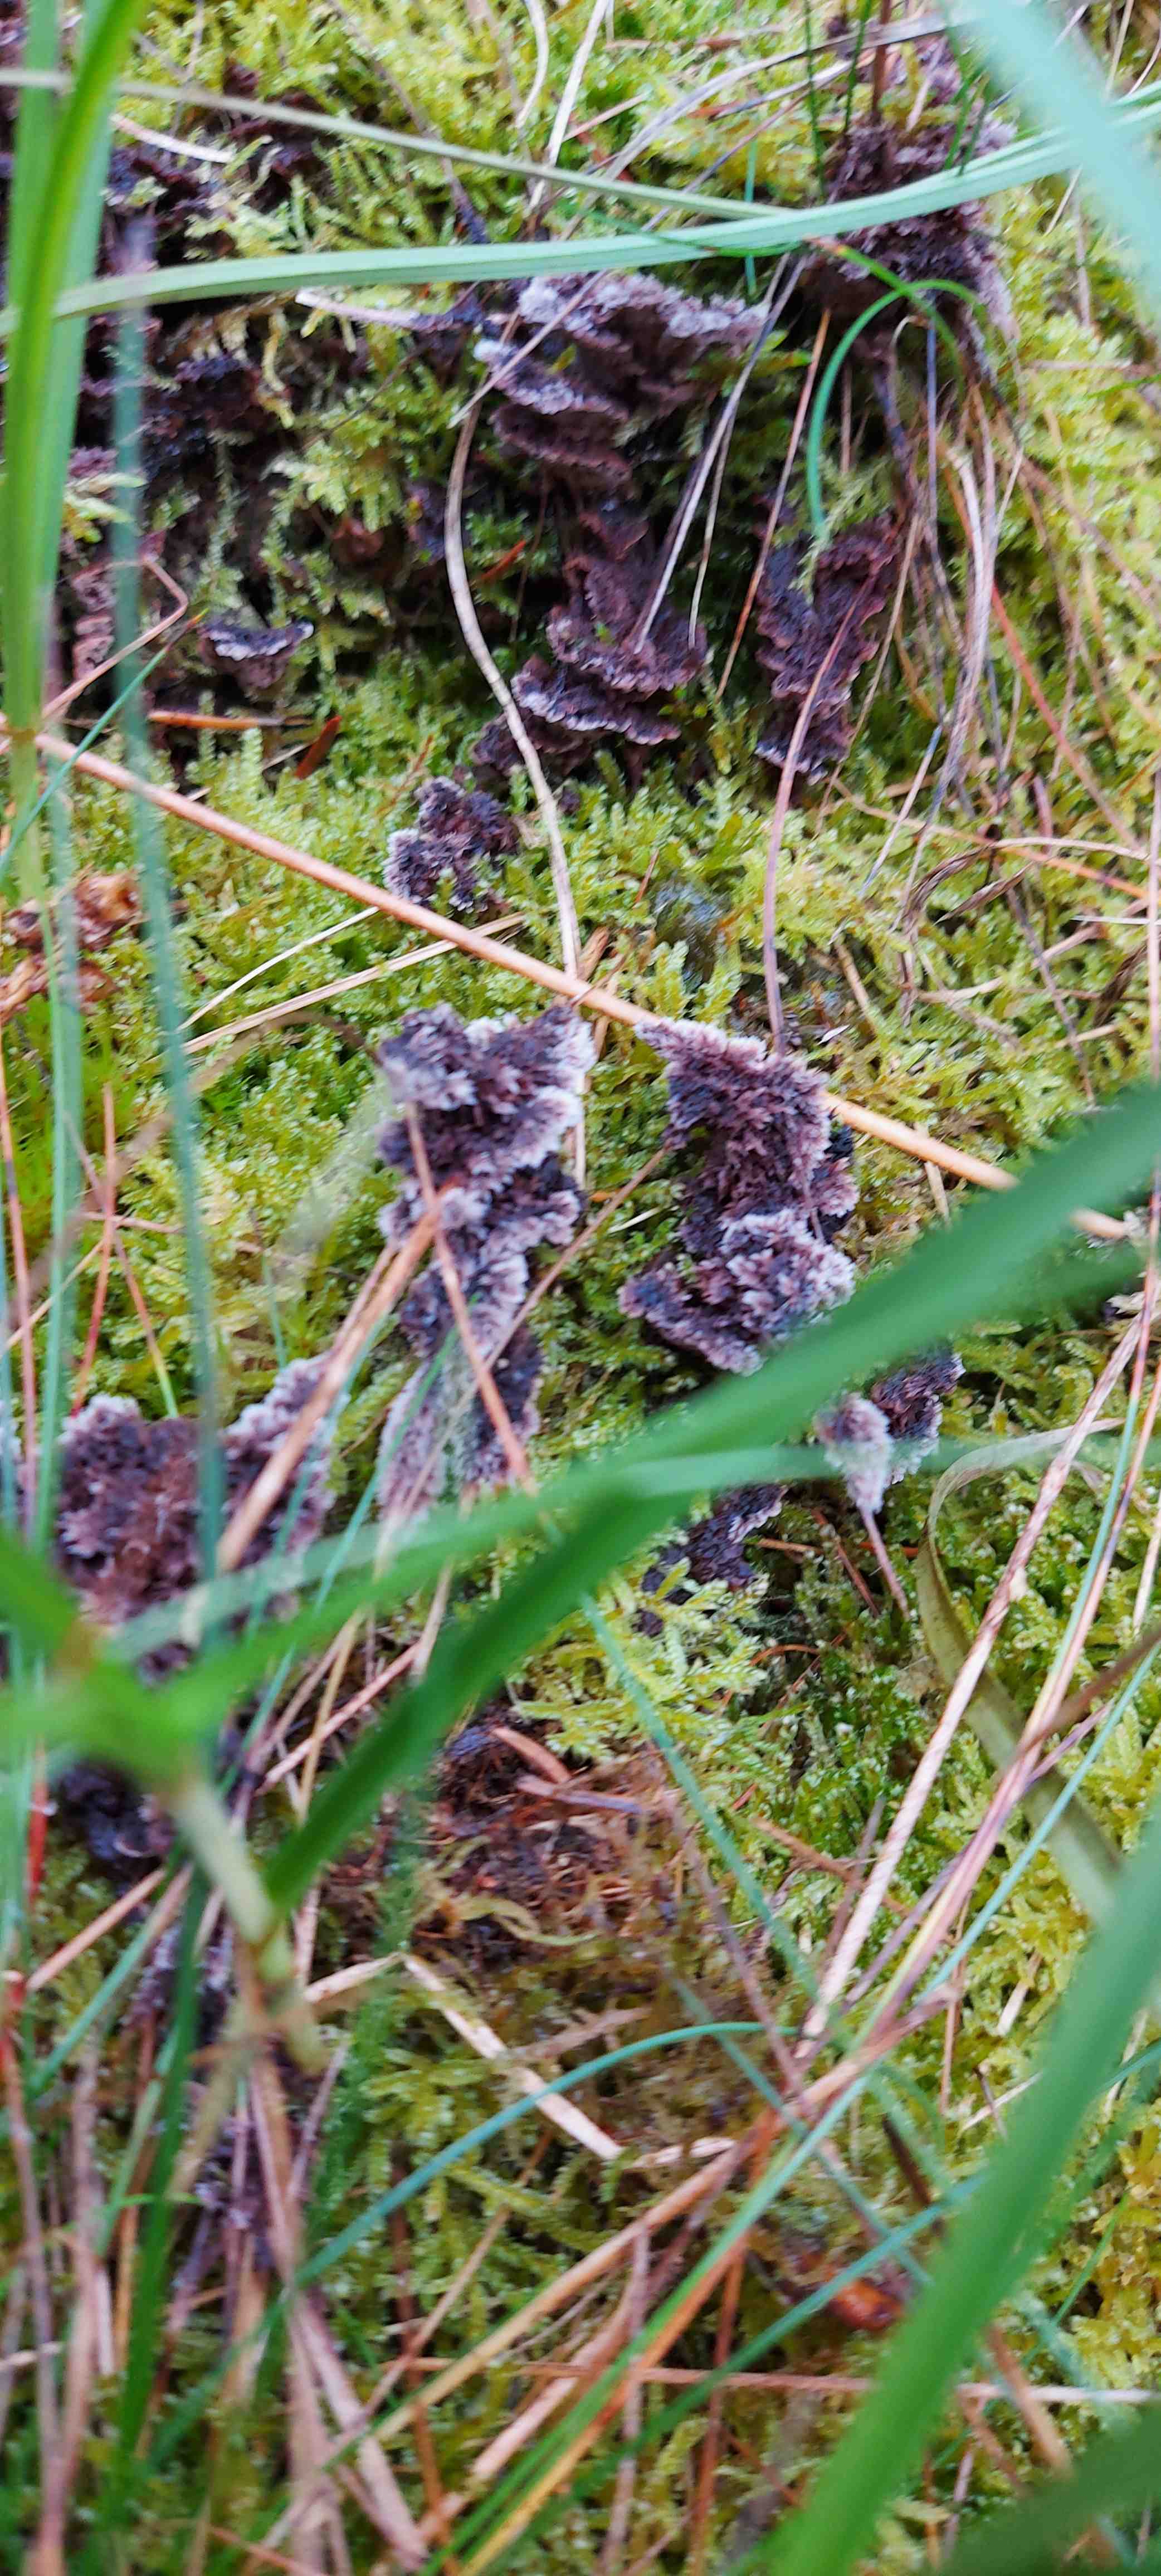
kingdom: Fungi
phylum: Basidiomycota
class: Agaricomycetes
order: Thelephorales
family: Thelephoraceae
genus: Thelephora
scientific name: Thelephora terrestris
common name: fliget frynsesvamp
